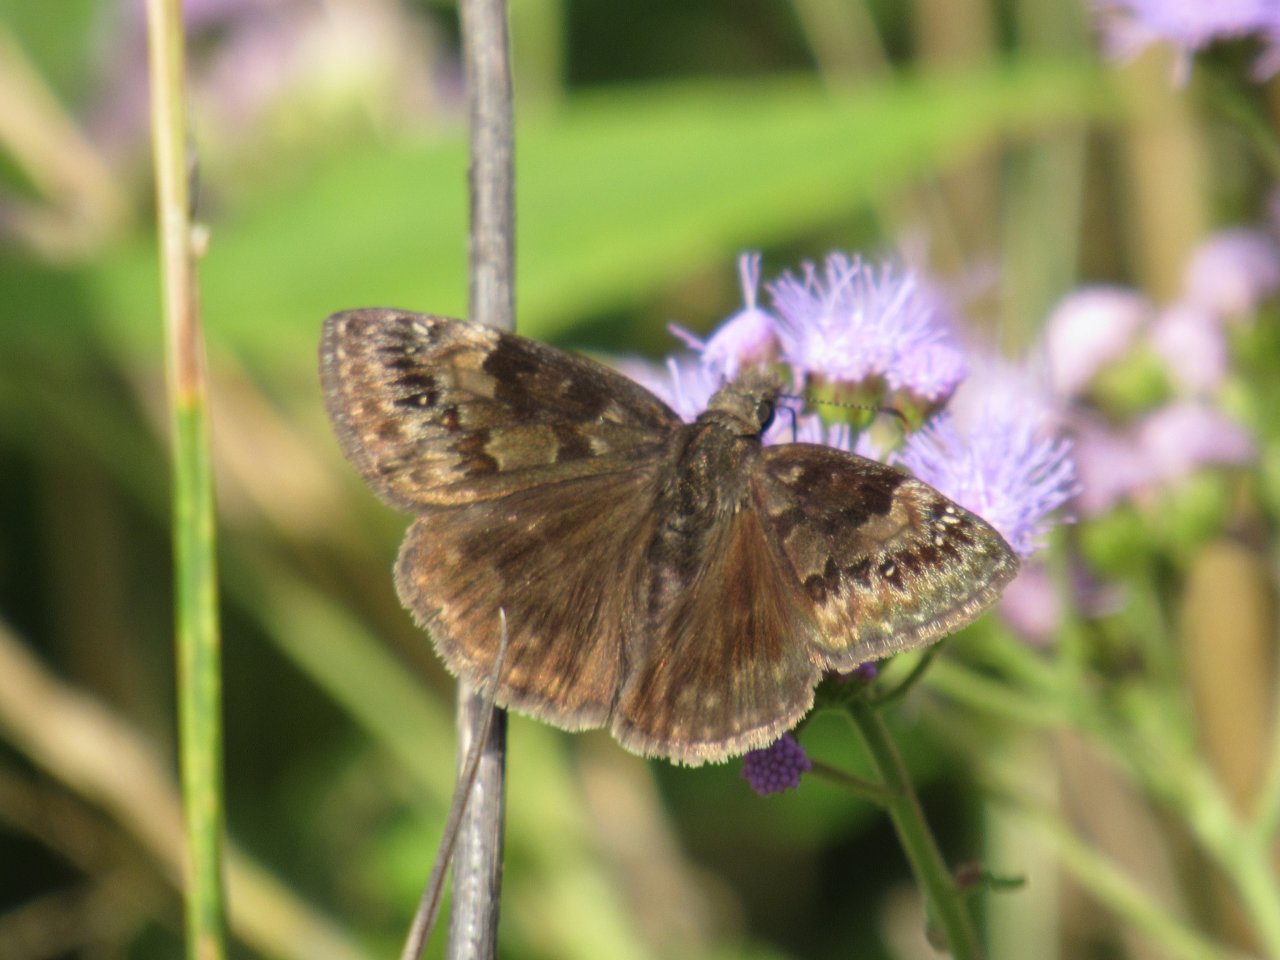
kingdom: Animalia
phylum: Arthropoda
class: Insecta
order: Lepidoptera
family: Hesperiidae
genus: Gesta
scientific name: Gesta
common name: Wild Indigo Duskywing
